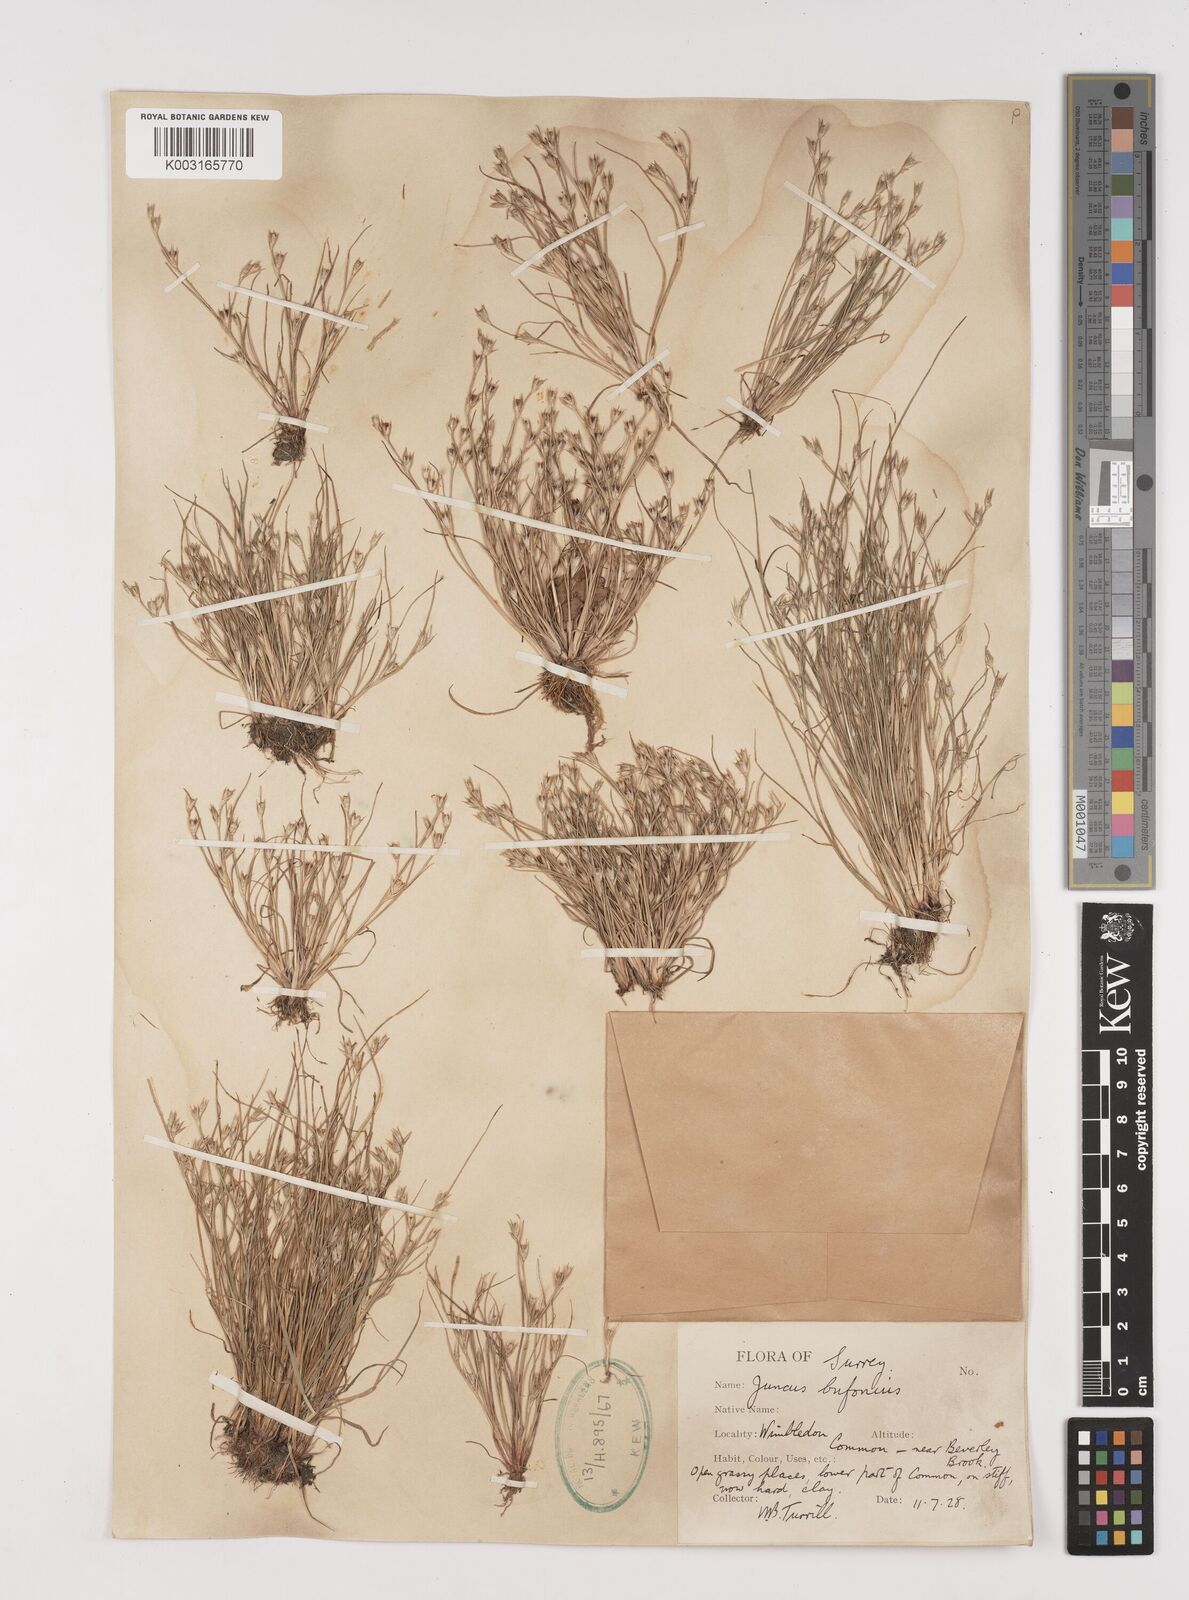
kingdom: Plantae
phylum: Tracheophyta
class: Liliopsida
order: Poales
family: Juncaceae
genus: Juncus
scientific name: Juncus bufonius
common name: Toad rush
